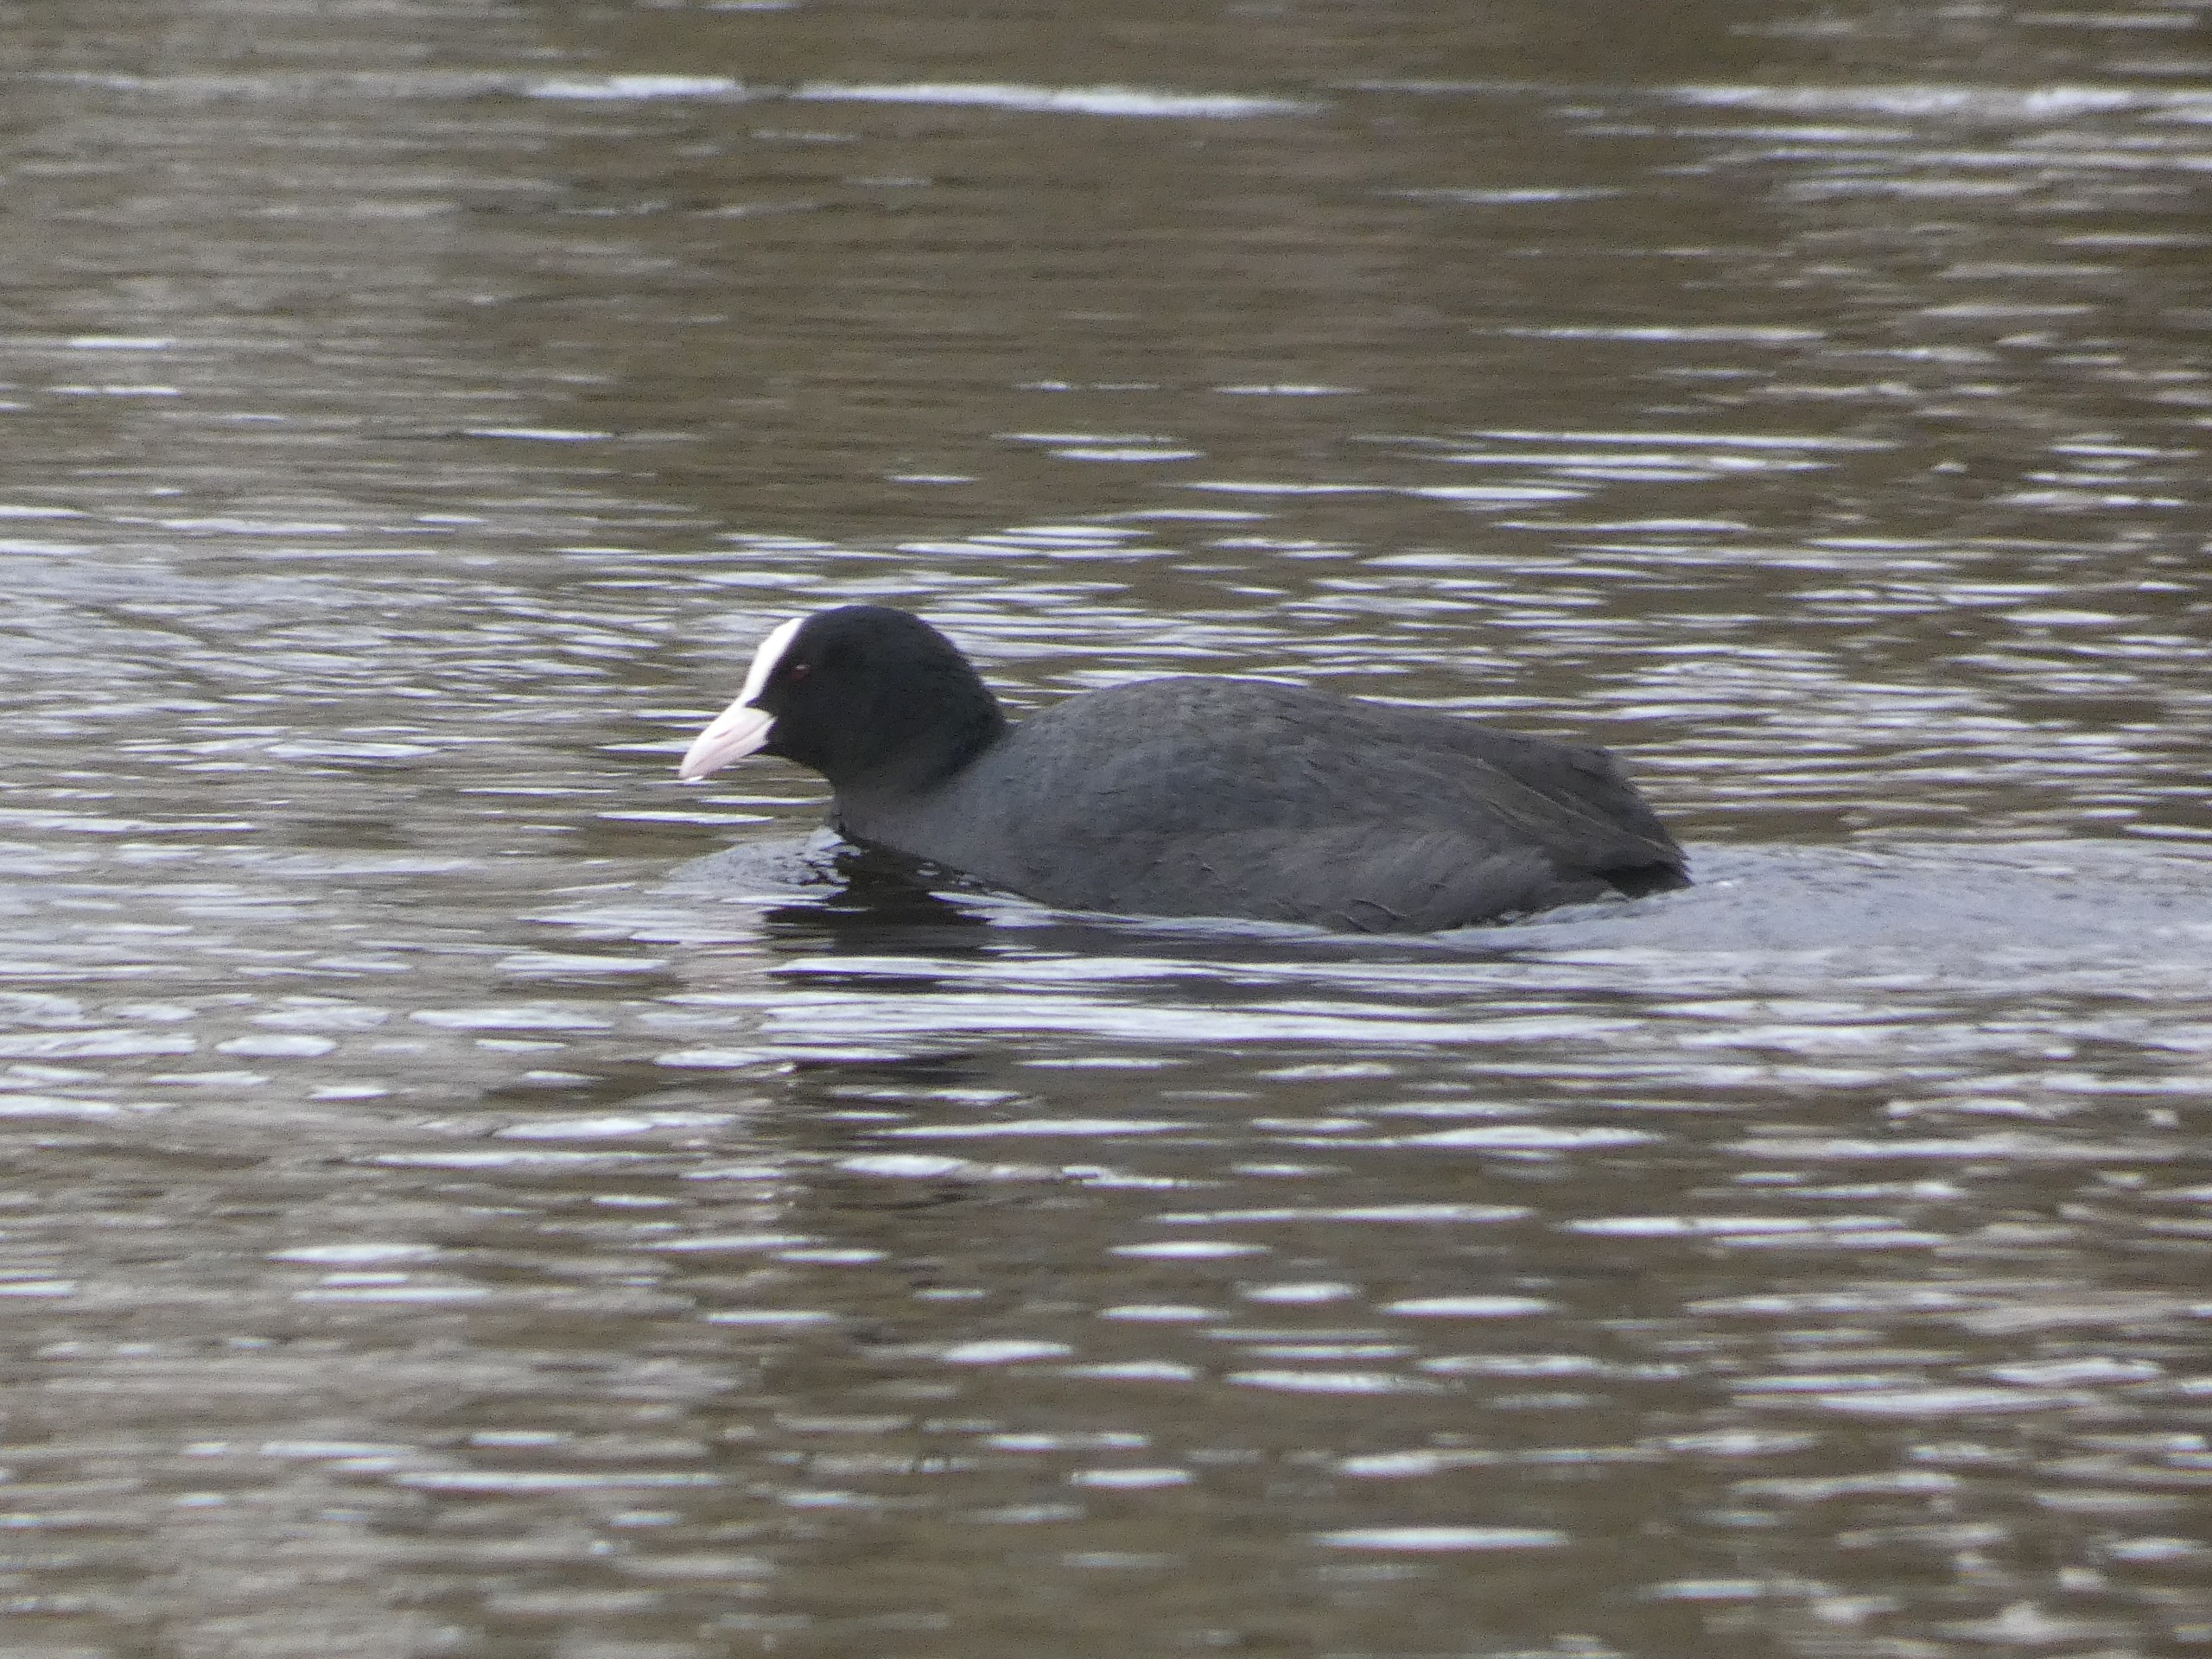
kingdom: Animalia
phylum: Chordata
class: Aves
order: Gruiformes
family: Rallidae
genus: Fulica
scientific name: Fulica atra
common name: Blishøne
